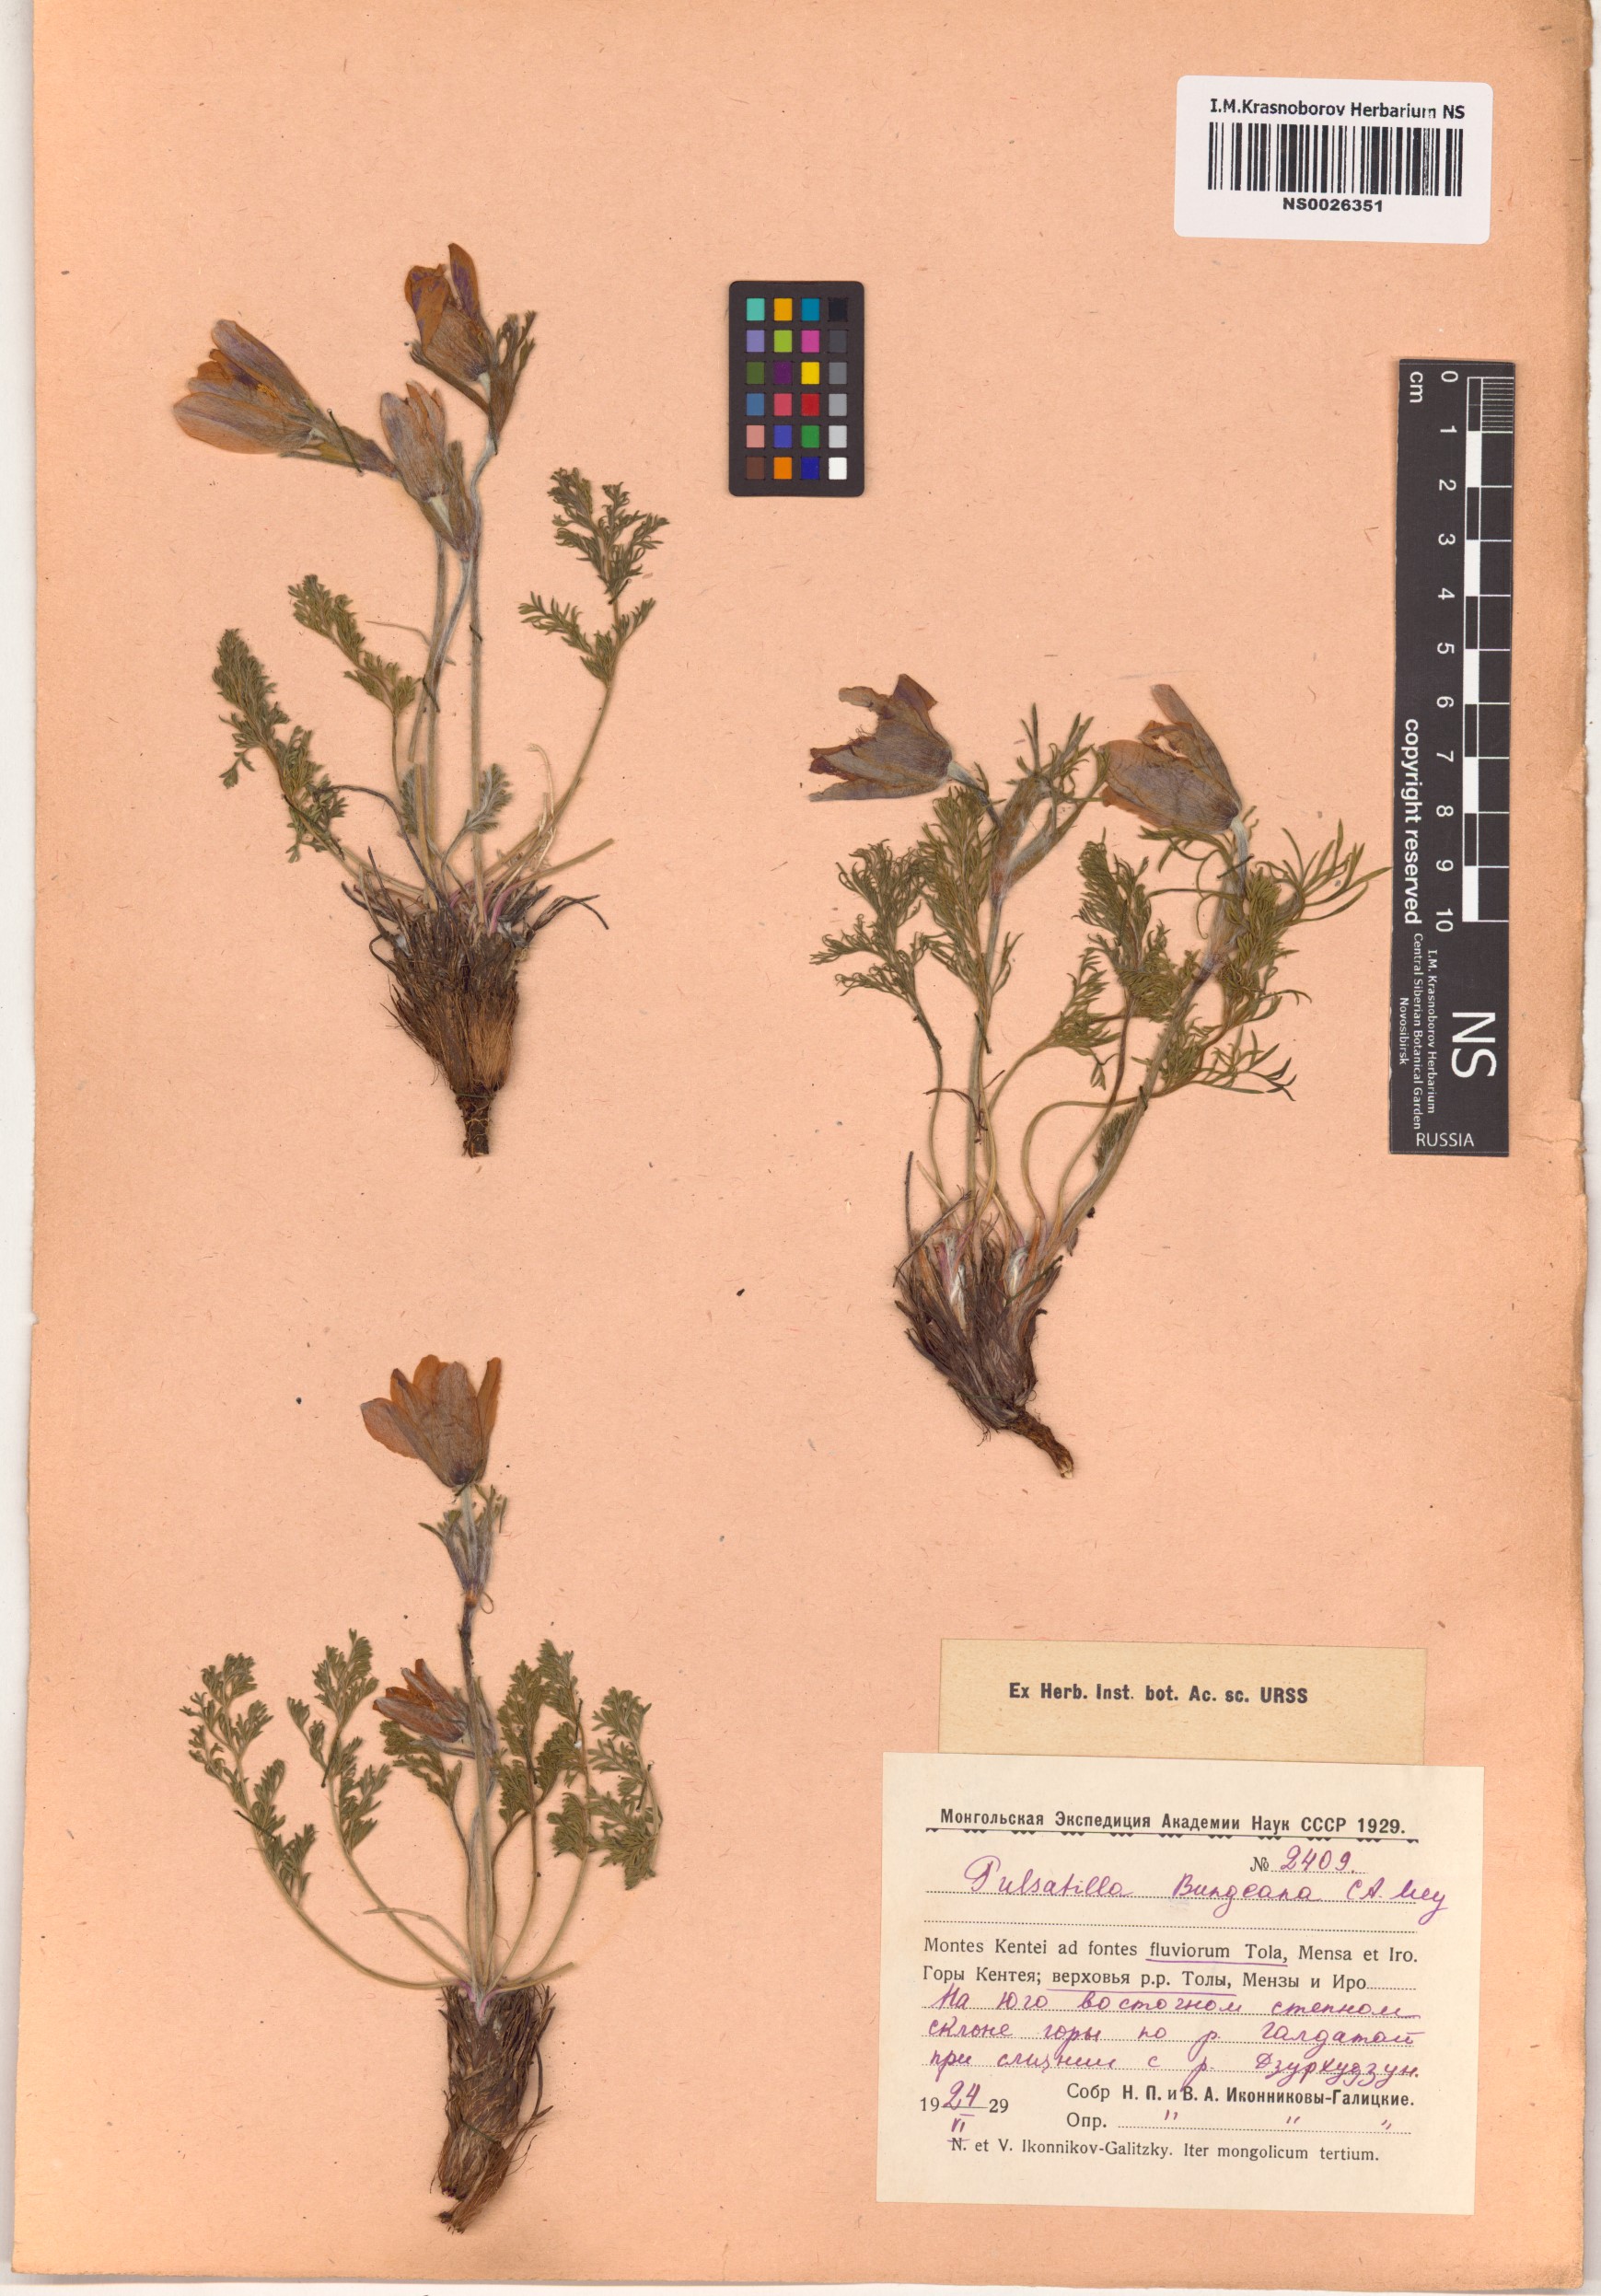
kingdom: Plantae
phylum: Tracheophyta
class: Magnoliopsida
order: Ranunculales
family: Ranunculaceae
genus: Pulsatilla
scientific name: Pulsatilla bungeana
